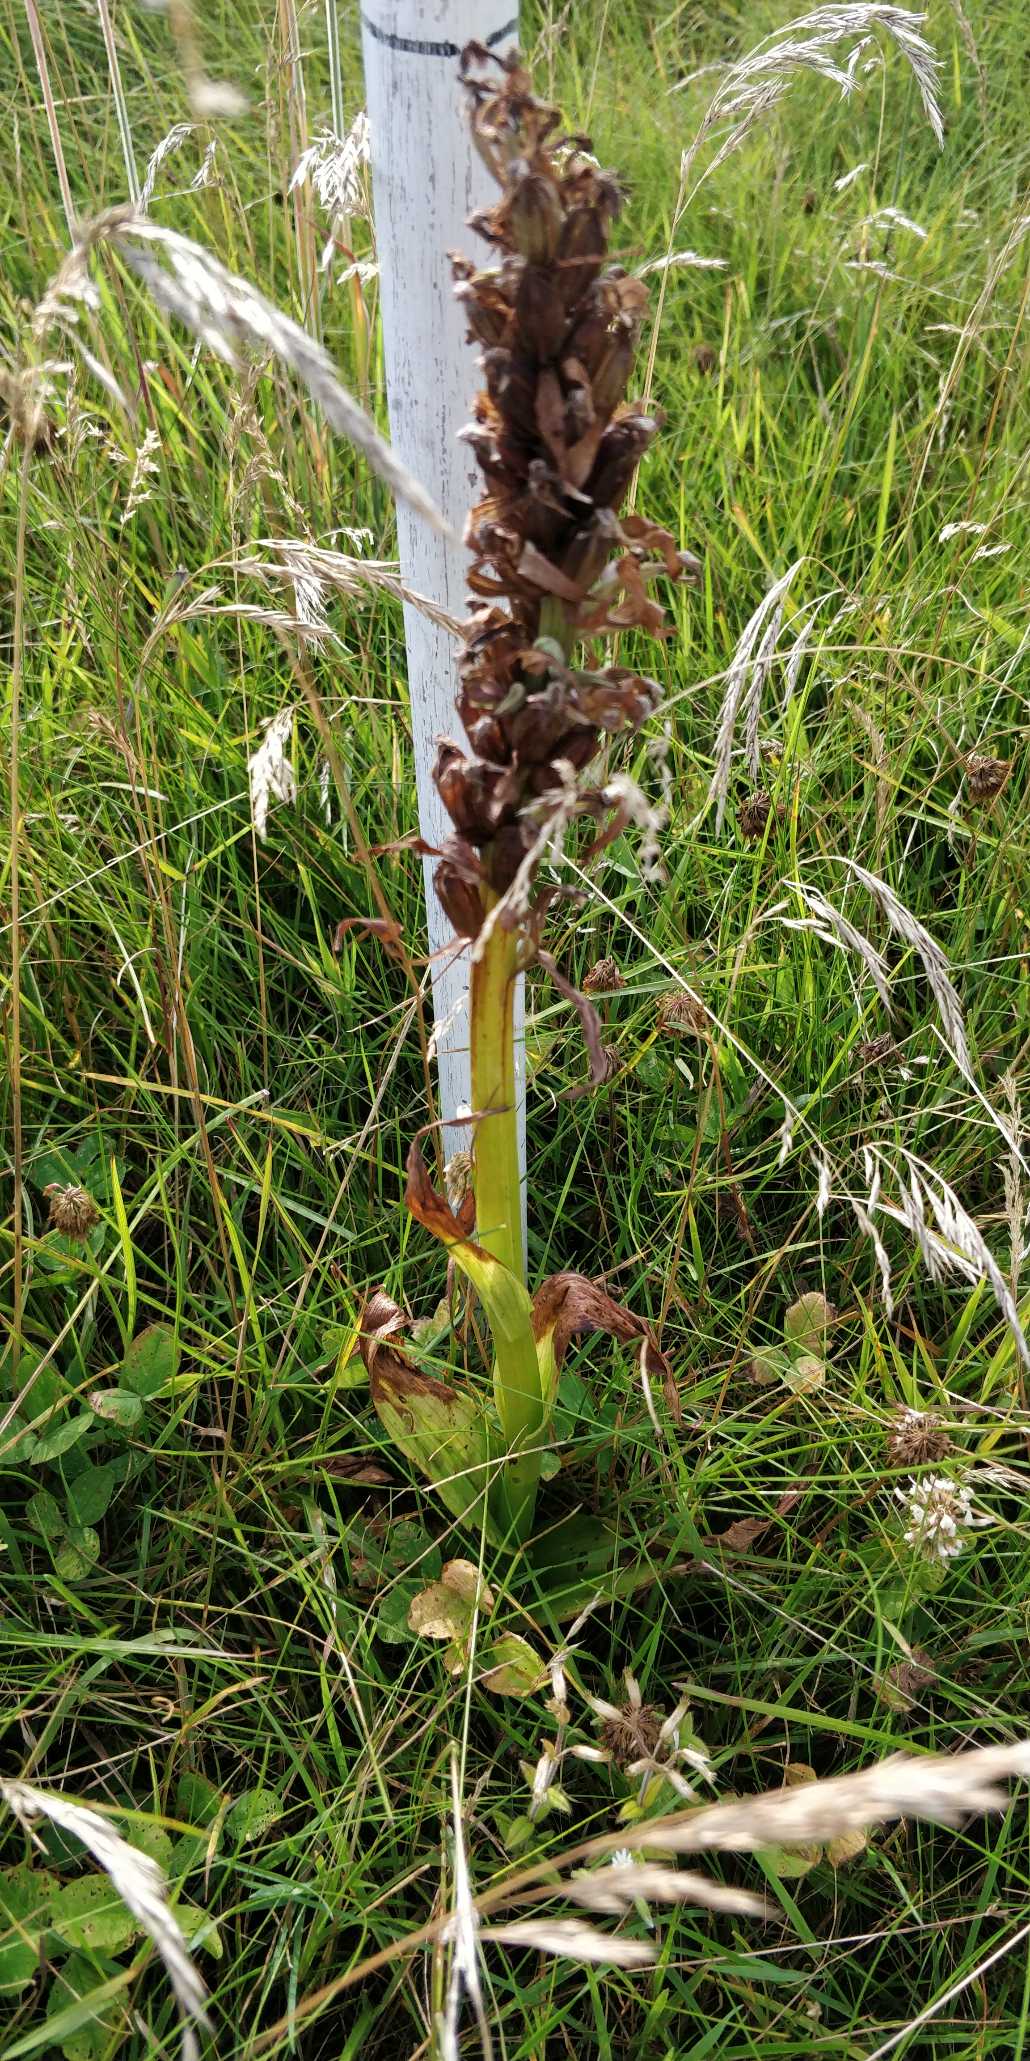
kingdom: Plantae
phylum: Tracheophyta
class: Liliopsida
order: Asparagales
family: Orchidaceae
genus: Dactylorhiza
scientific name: Dactylorhiza majalis
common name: Maj-gøgeurt
